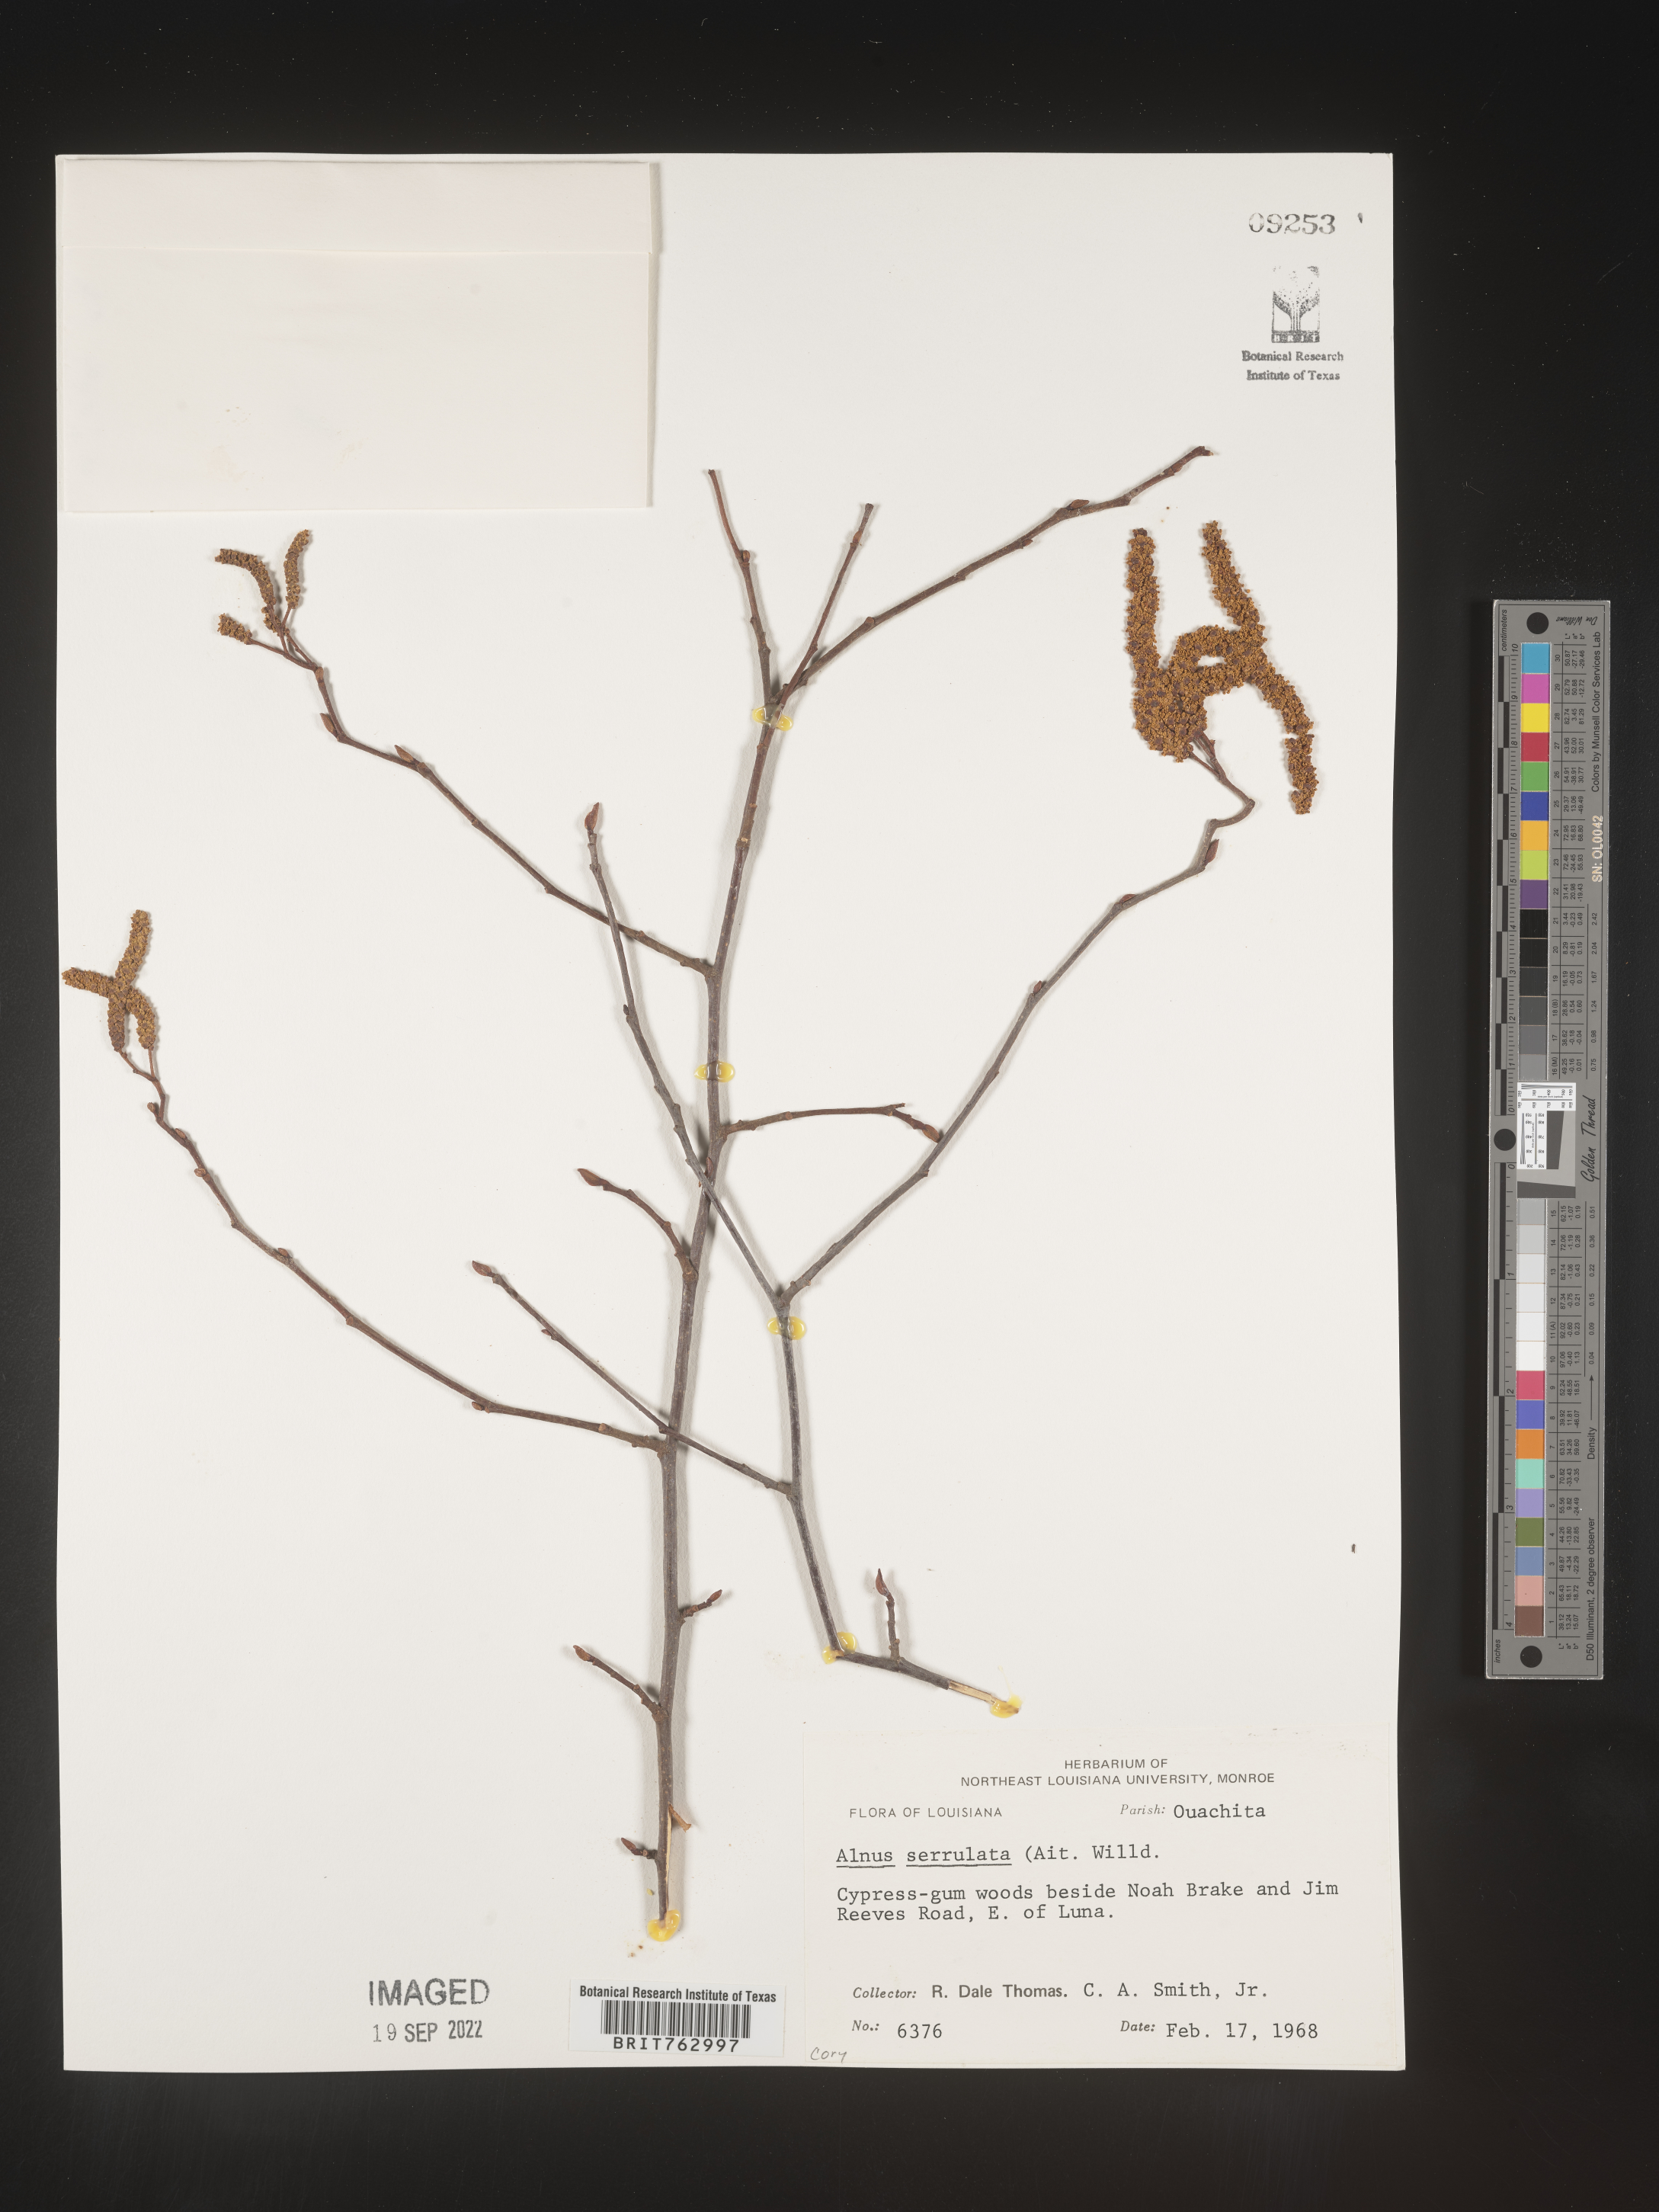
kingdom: Plantae
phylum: Tracheophyta
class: Magnoliopsida
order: Fagales
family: Betulaceae
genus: Alnus
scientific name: Alnus serrulata
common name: Hazel alder
